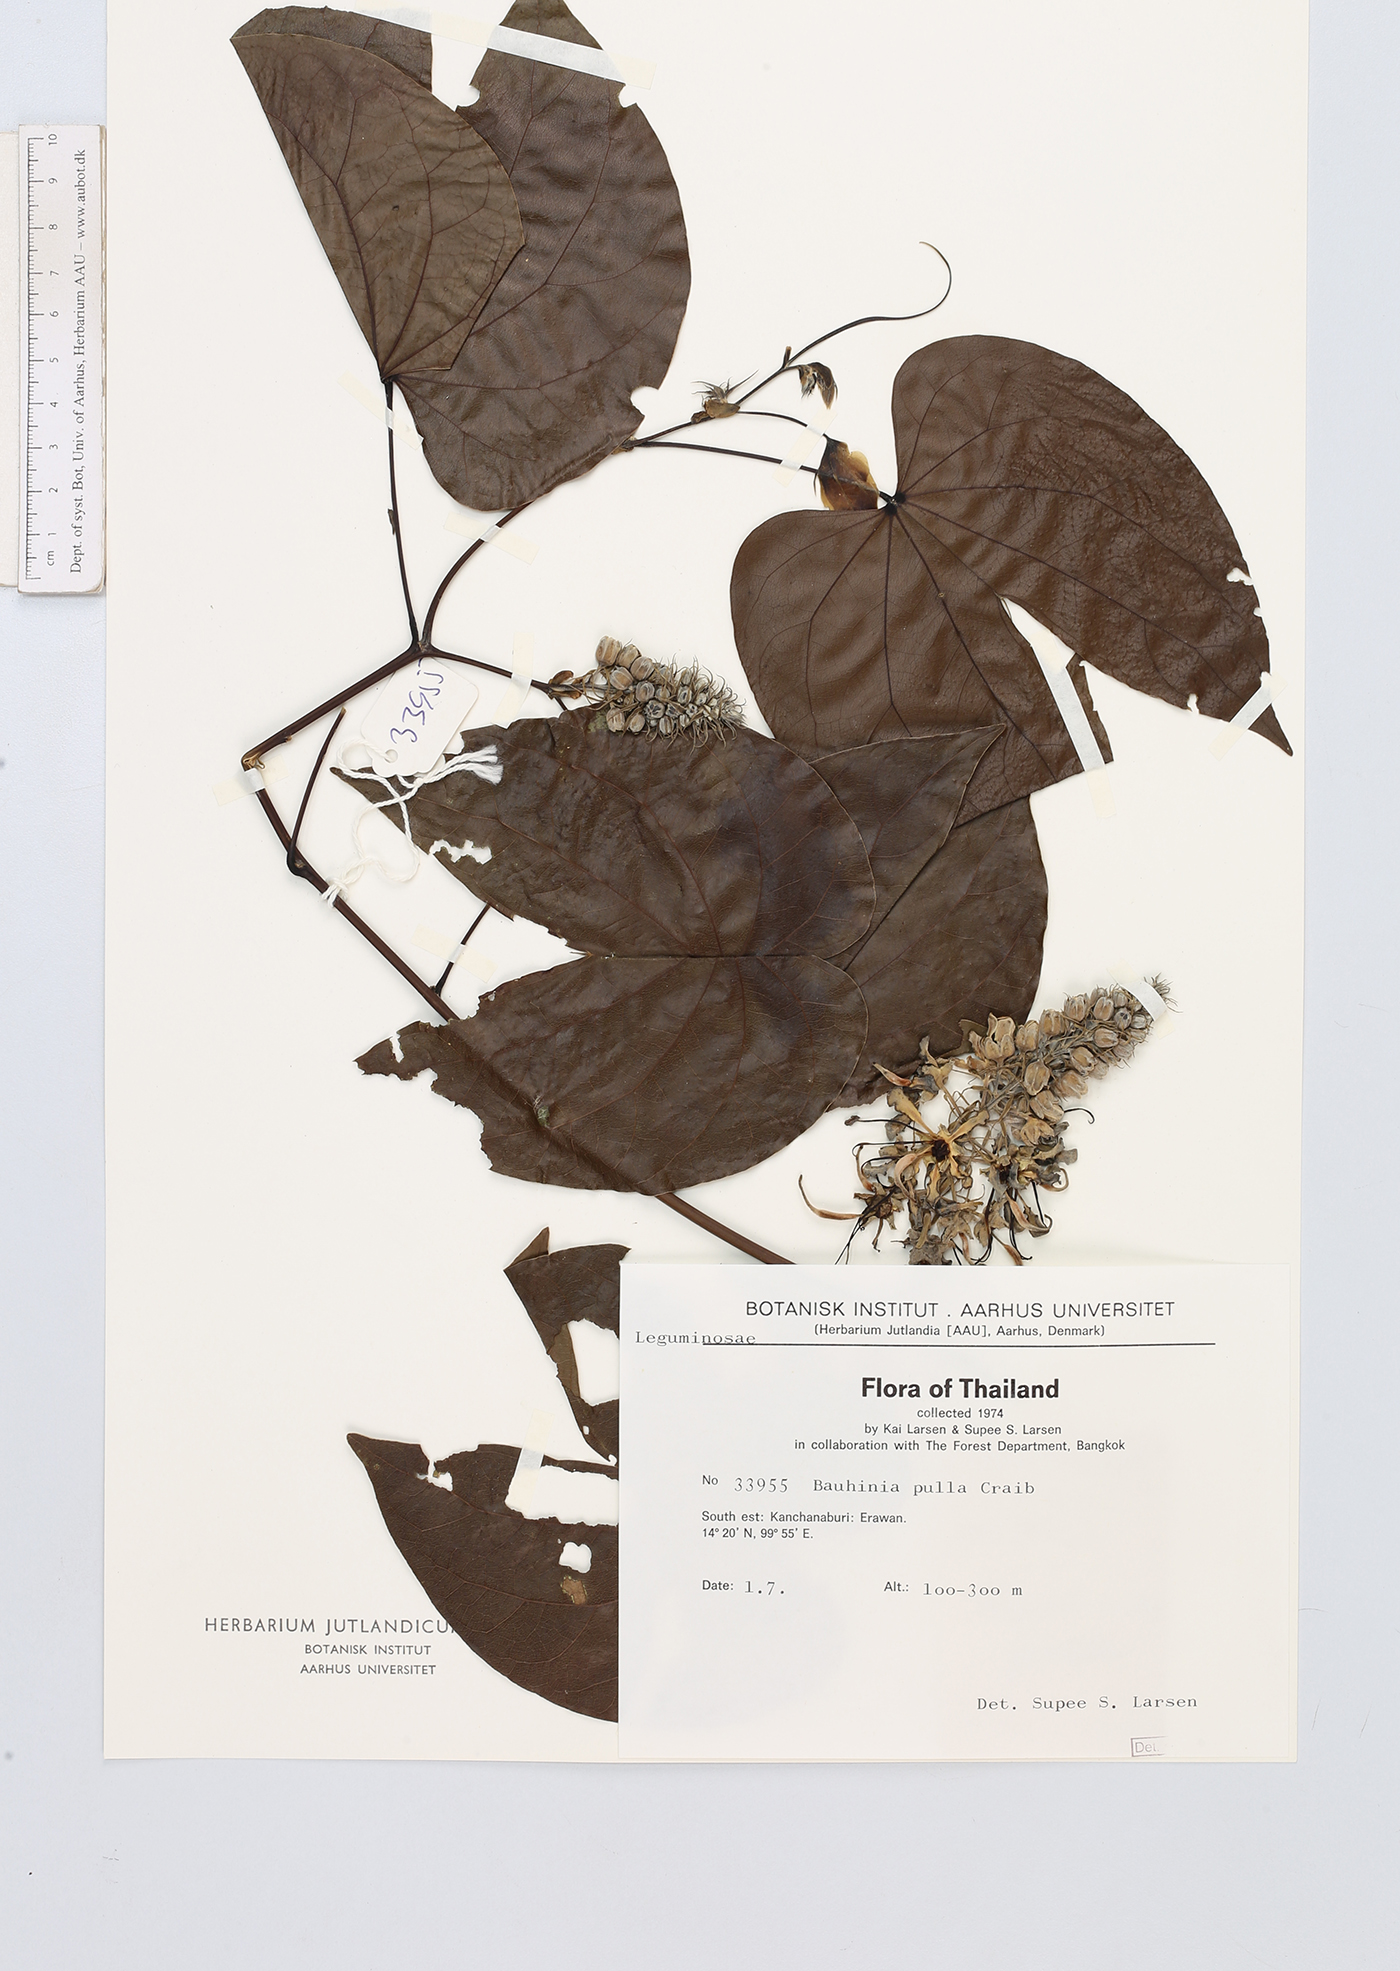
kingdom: Plantae
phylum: Tracheophyta
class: Magnoliopsida
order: Fabales
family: Fabaceae
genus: Phanera
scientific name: Phanera pulla
